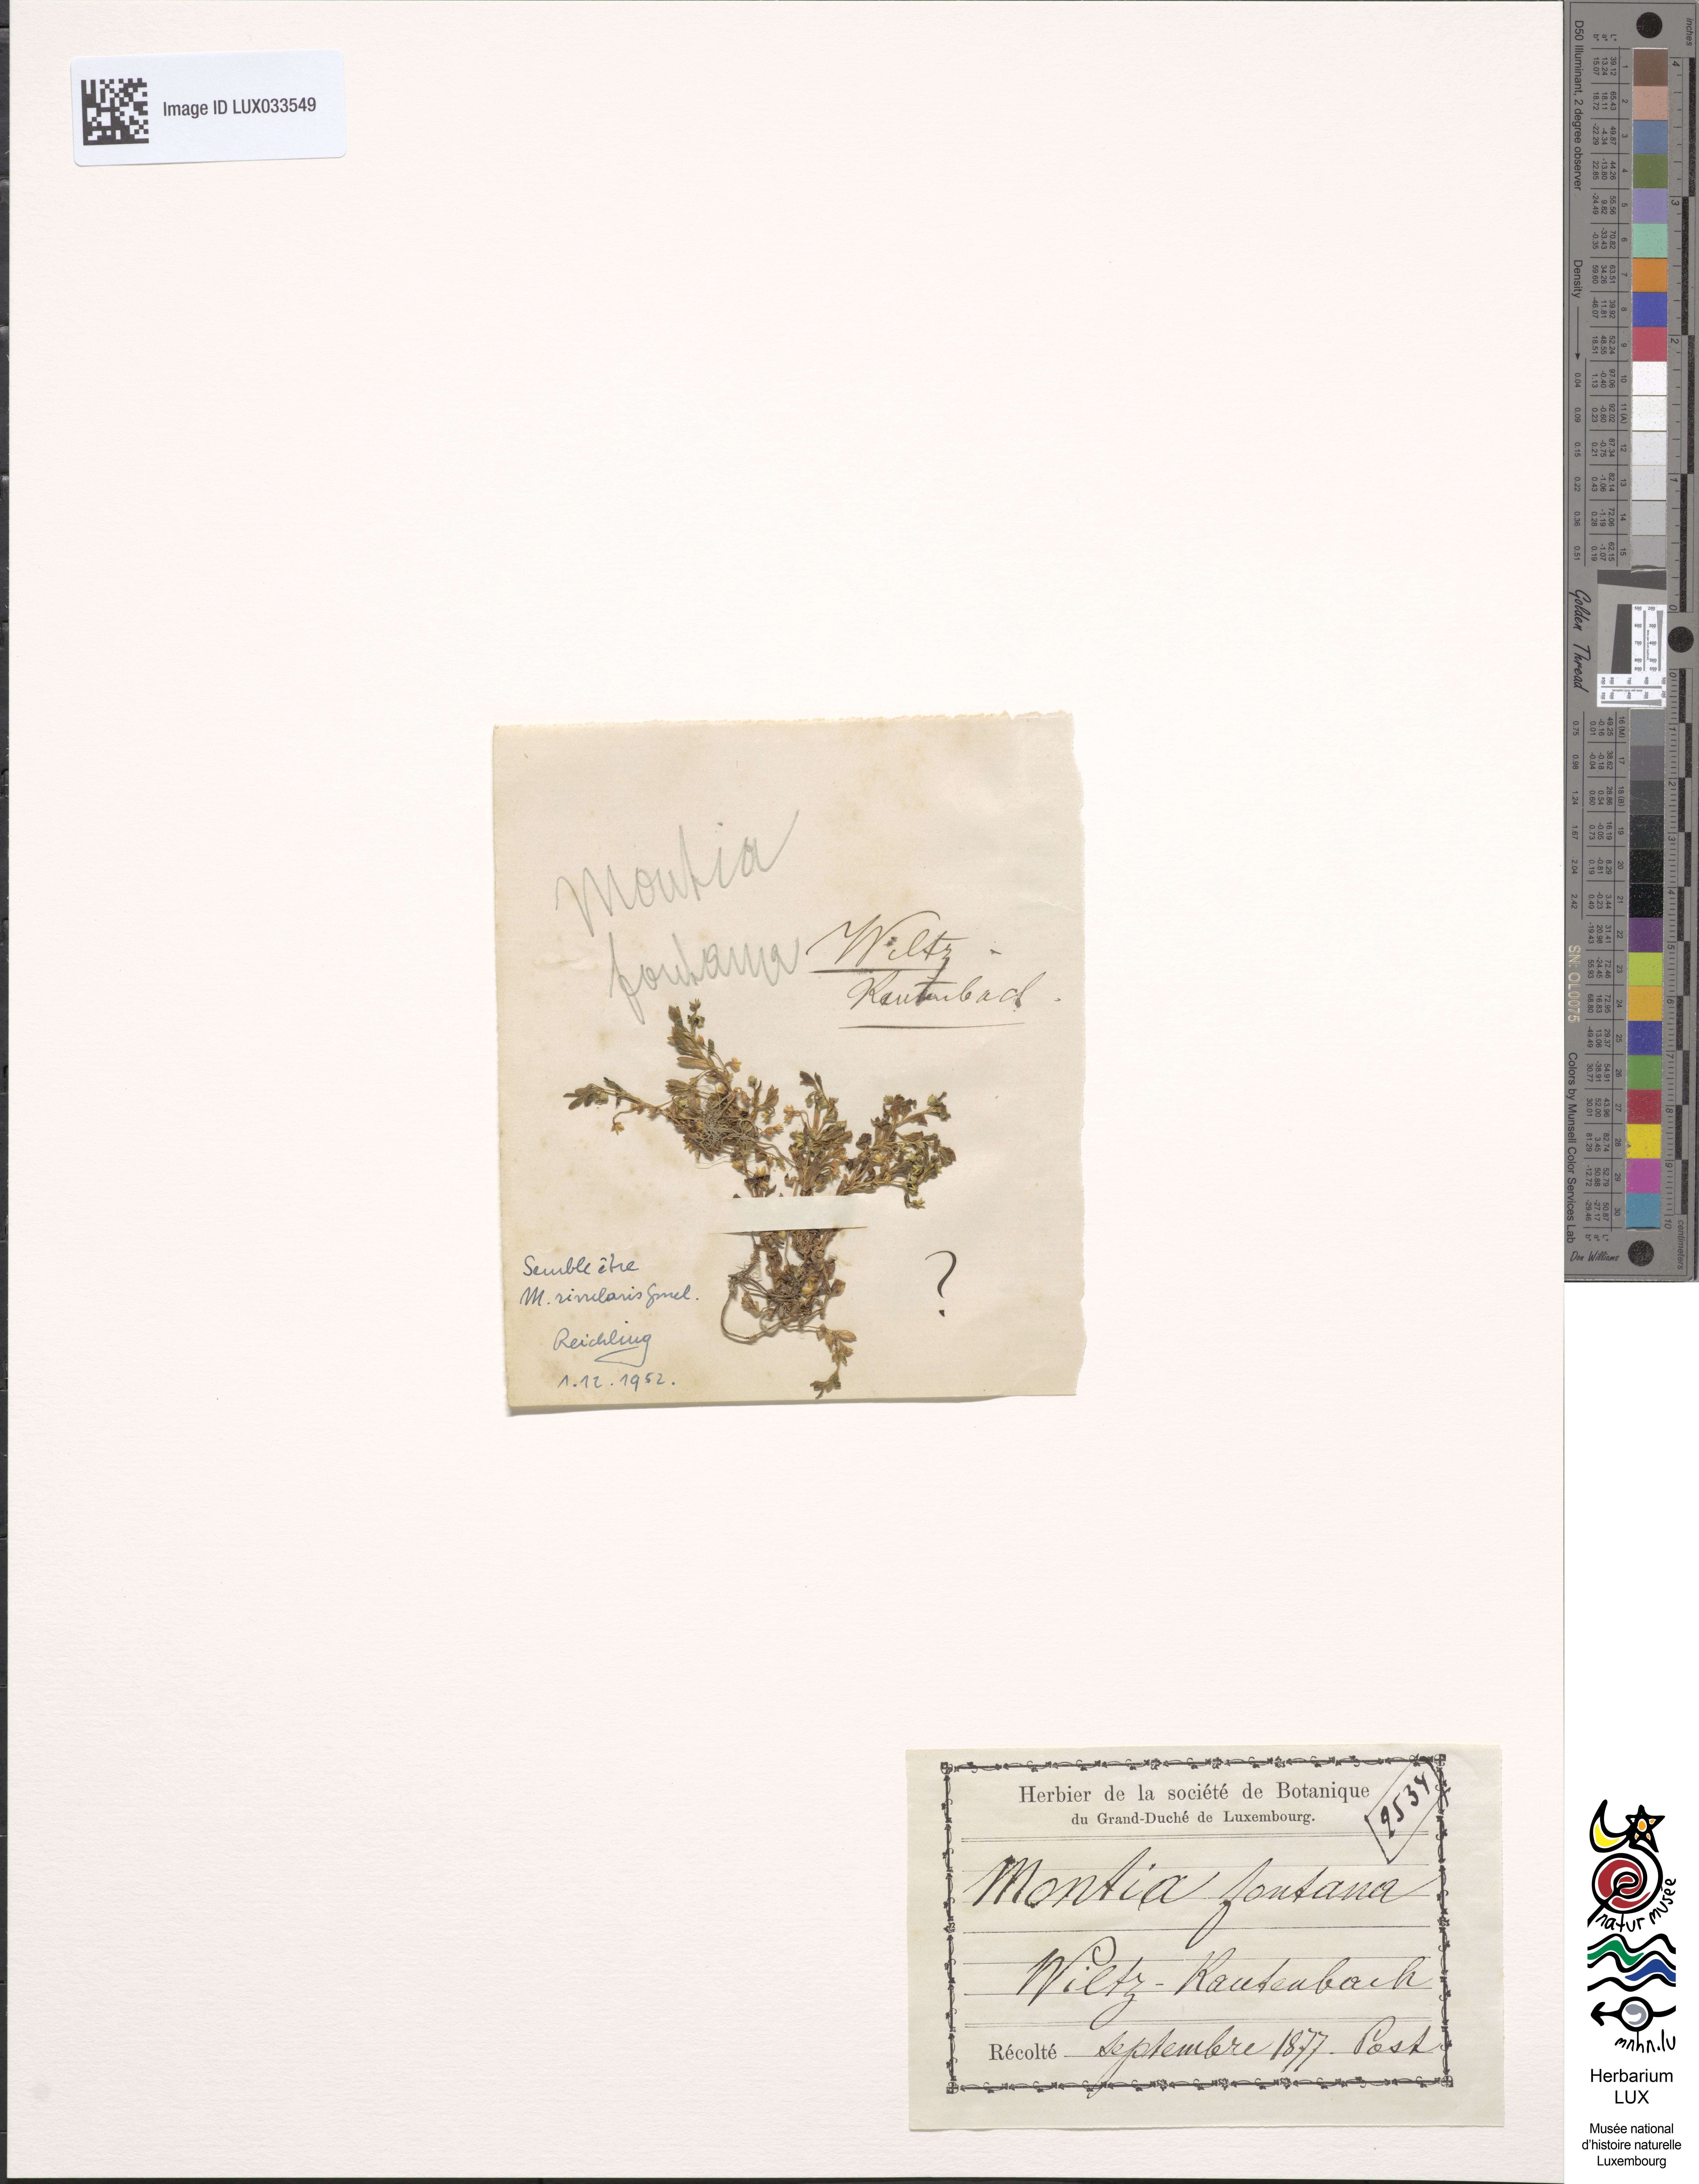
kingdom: Plantae
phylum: Tracheophyta
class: Magnoliopsida
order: Caryophyllales
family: Montiaceae
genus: Montia
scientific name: Montia fontana
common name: Blinks
